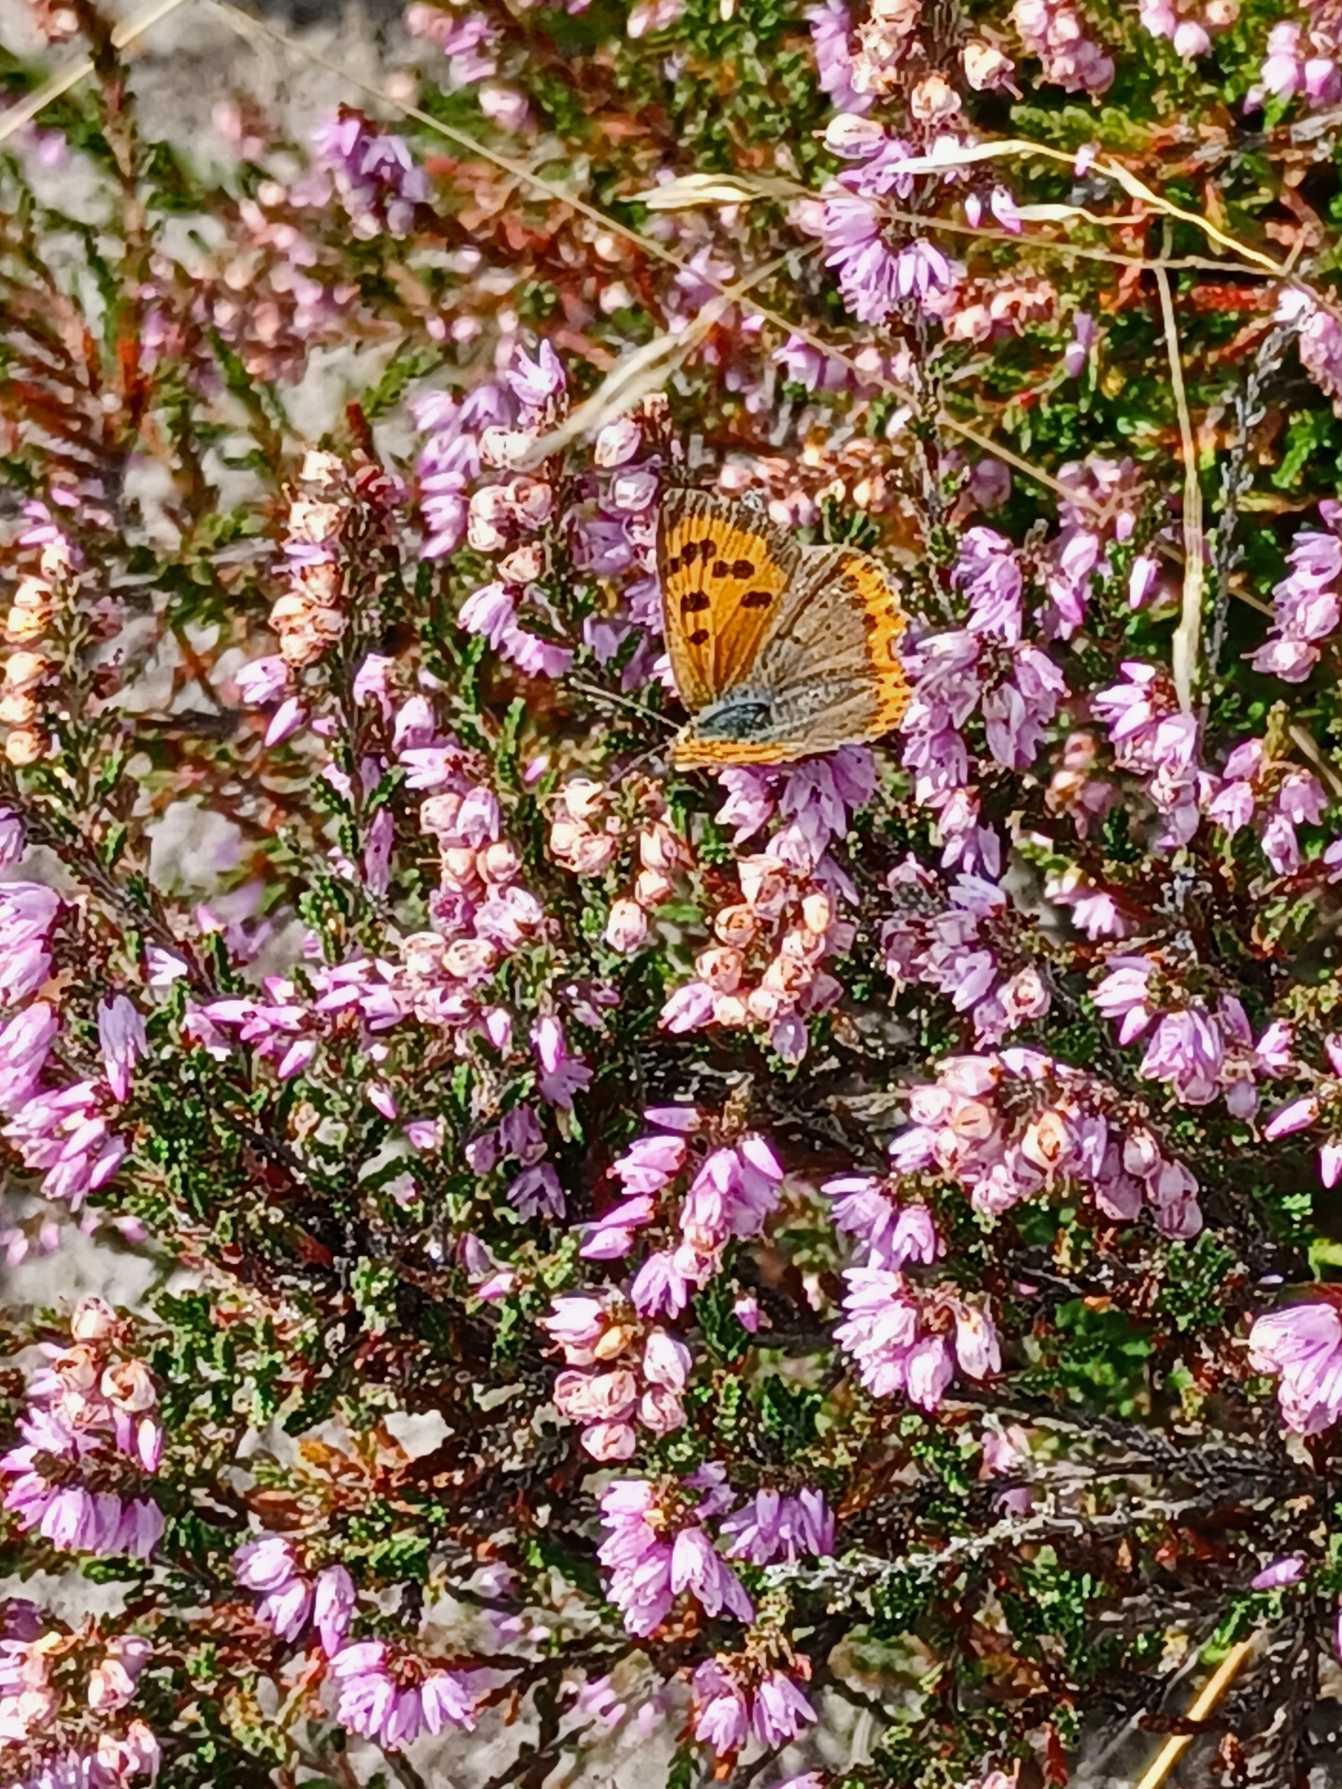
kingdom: Animalia
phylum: Arthropoda
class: Insecta
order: Lepidoptera
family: Lycaenidae
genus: Lycaena
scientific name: Lycaena phlaeas
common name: Lille ildfugl
